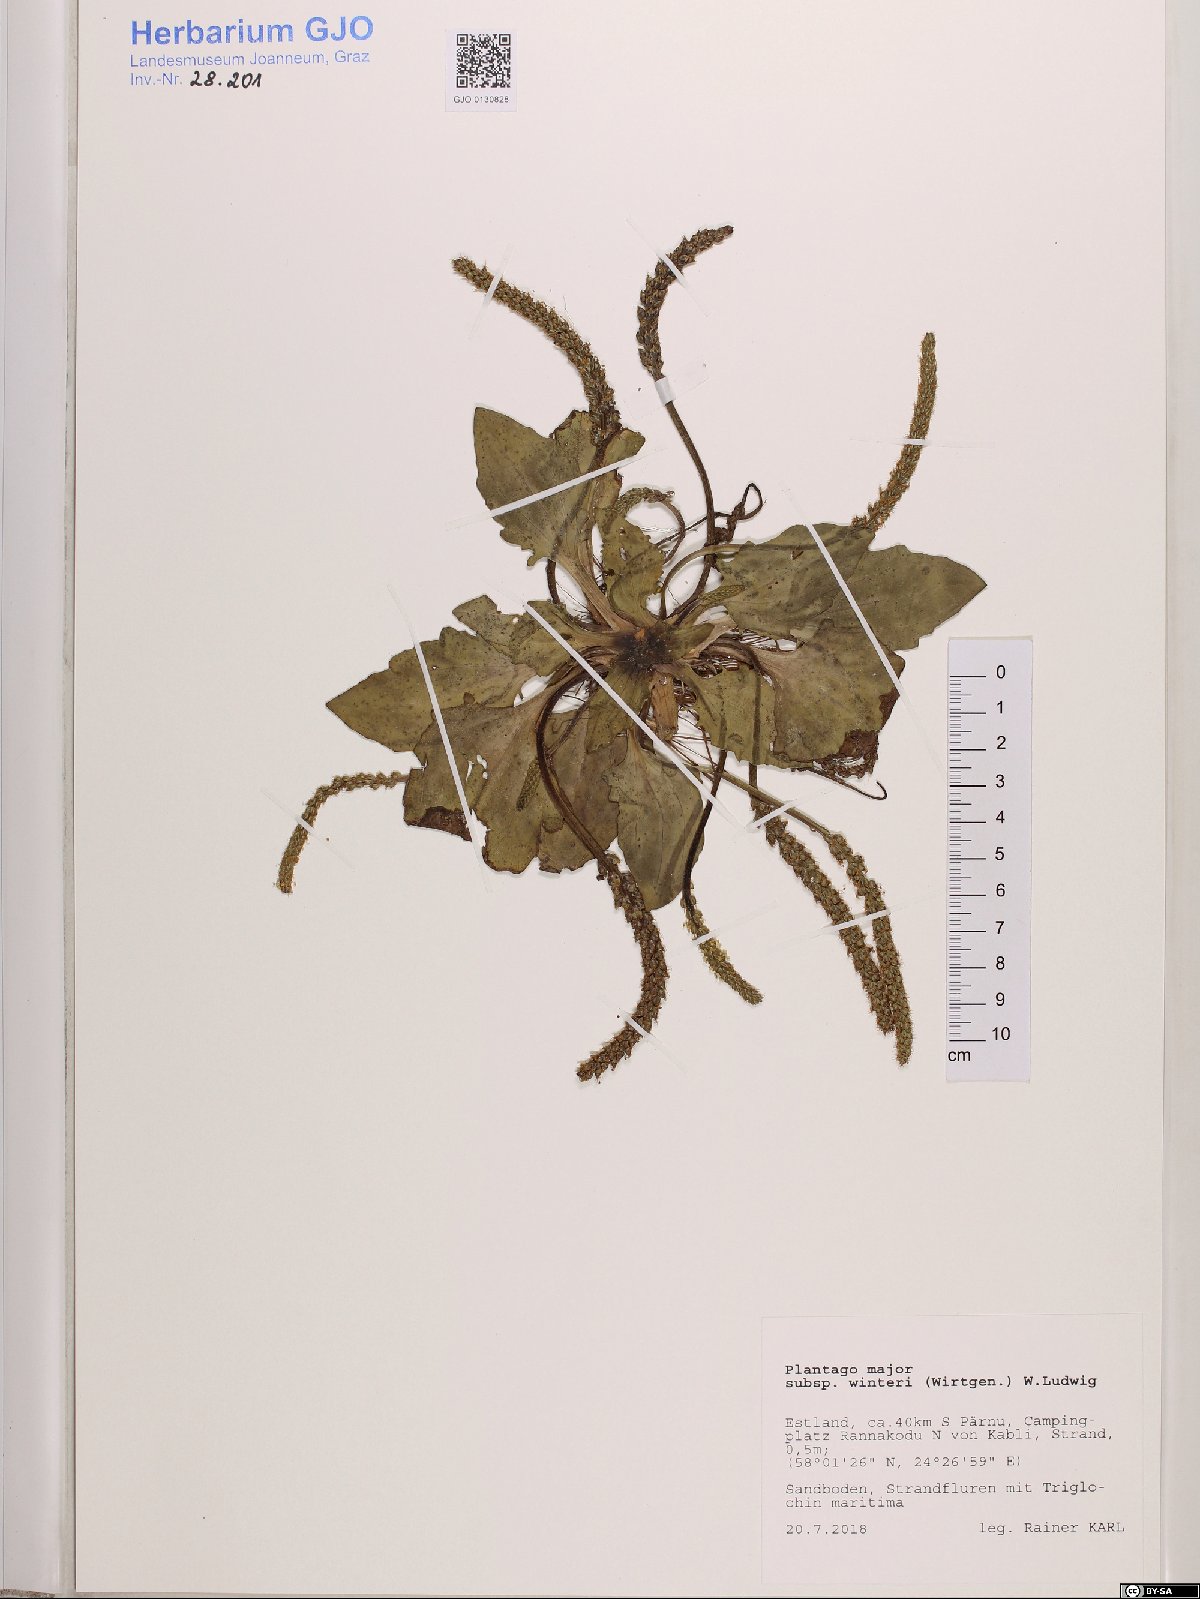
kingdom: Plantae
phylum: Tracheophyta
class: Magnoliopsida
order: Lamiales
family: Plantaginaceae
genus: Plantago
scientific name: Plantago uliginosa
